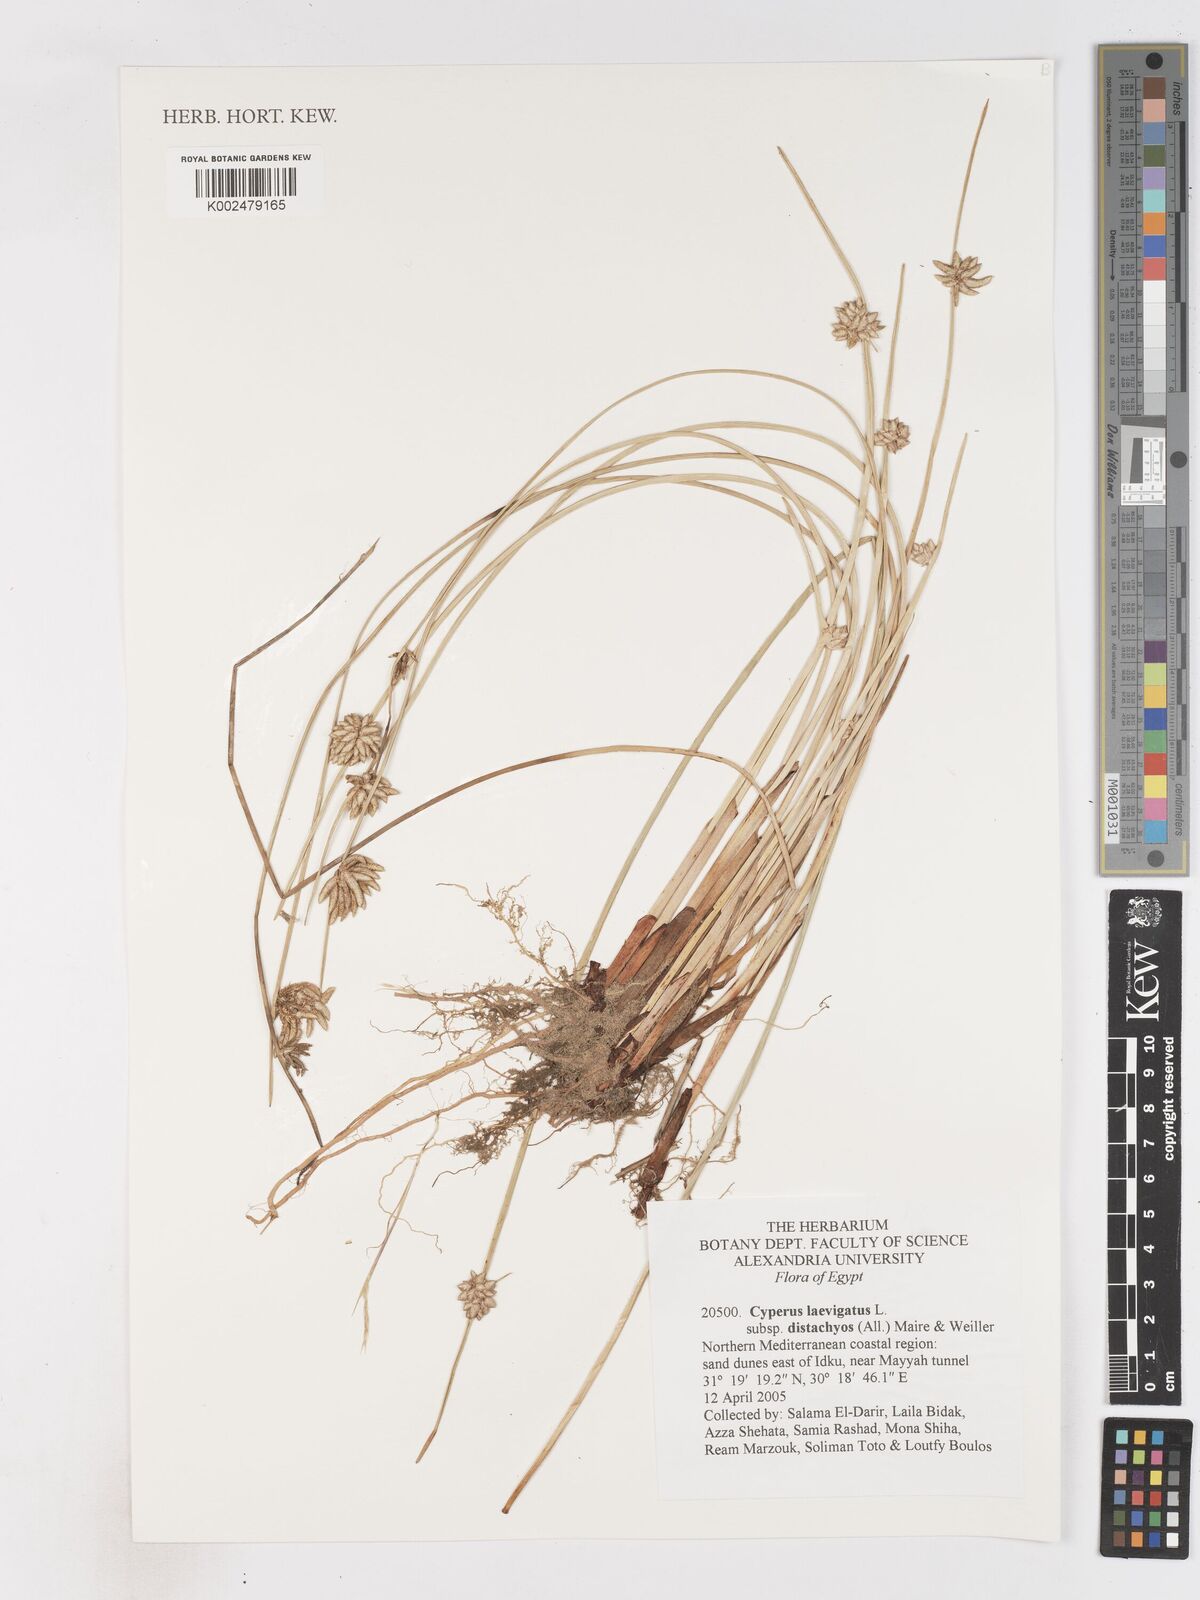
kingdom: Plantae
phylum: Tracheophyta
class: Liliopsida
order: Poales
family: Cyperaceae
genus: Cyperus
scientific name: Cyperus laevigatus
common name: Smooth flat sedge
